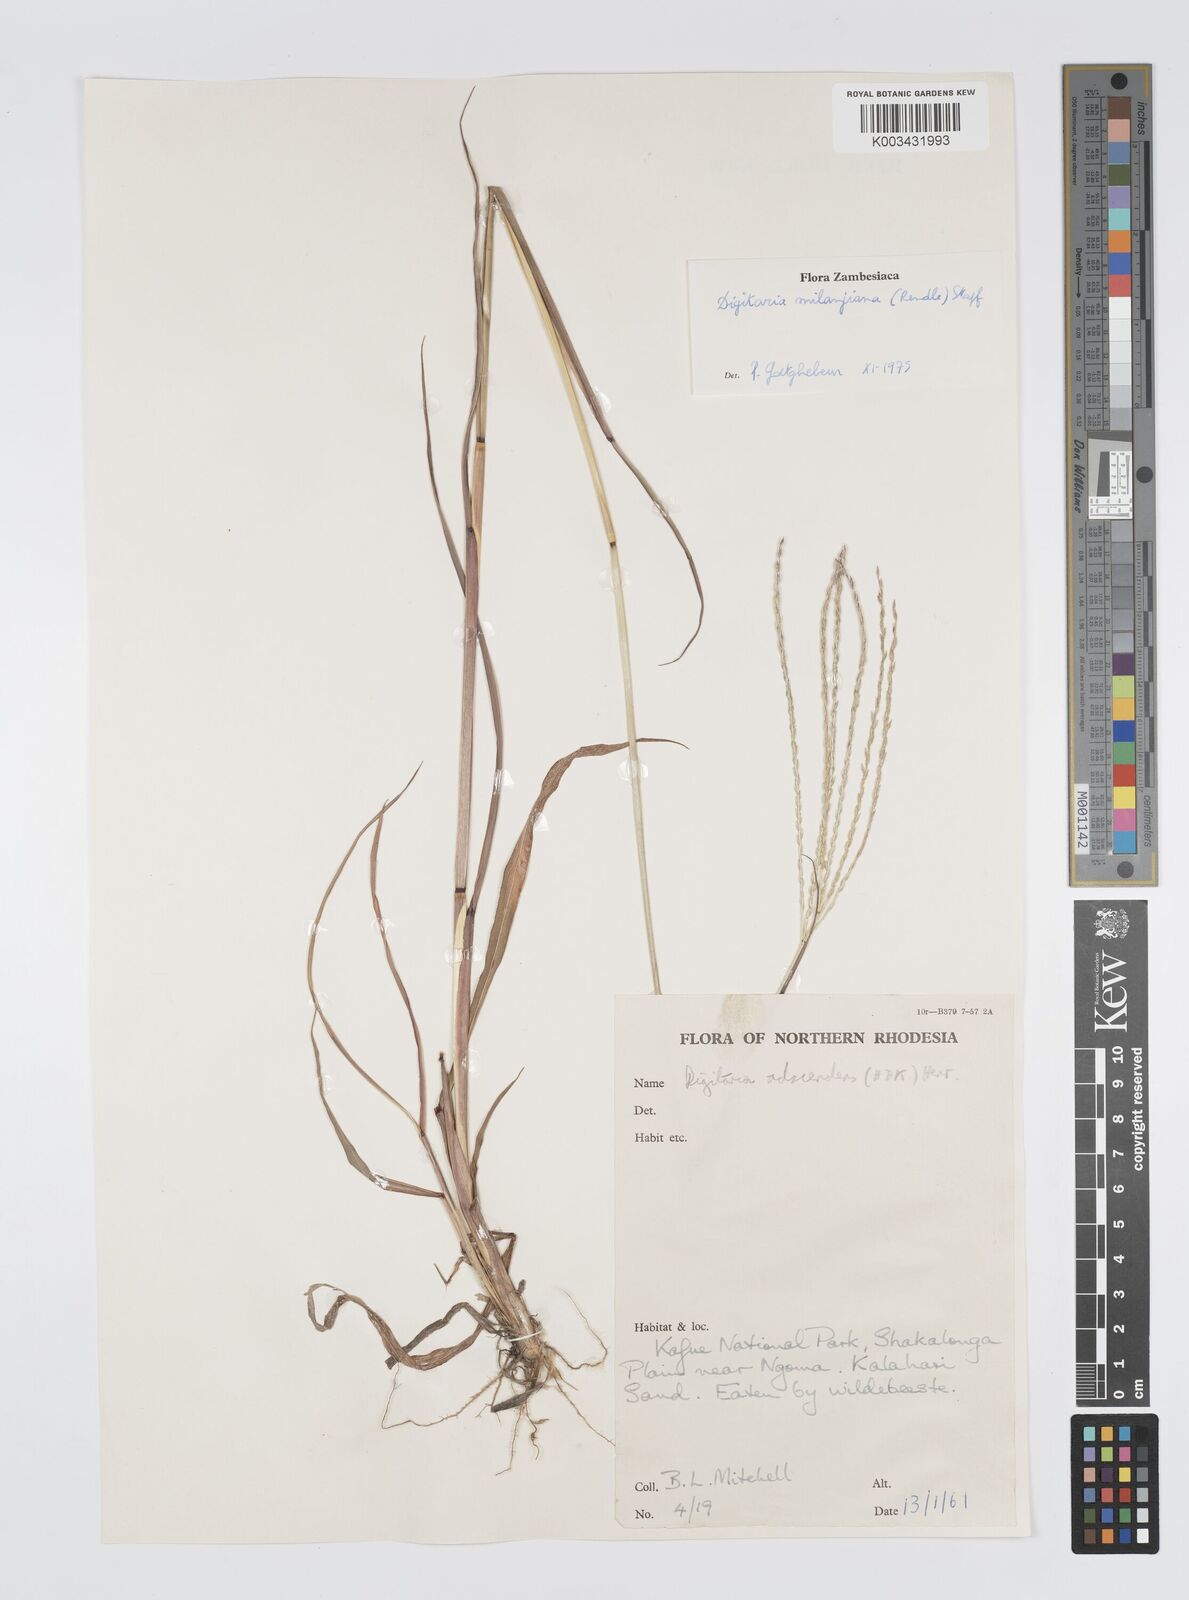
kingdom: Plantae
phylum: Tracheophyta
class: Liliopsida
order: Poales
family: Poaceae
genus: Digitaria
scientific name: Digitaria milanjiana
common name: Madagascar crabgrass
